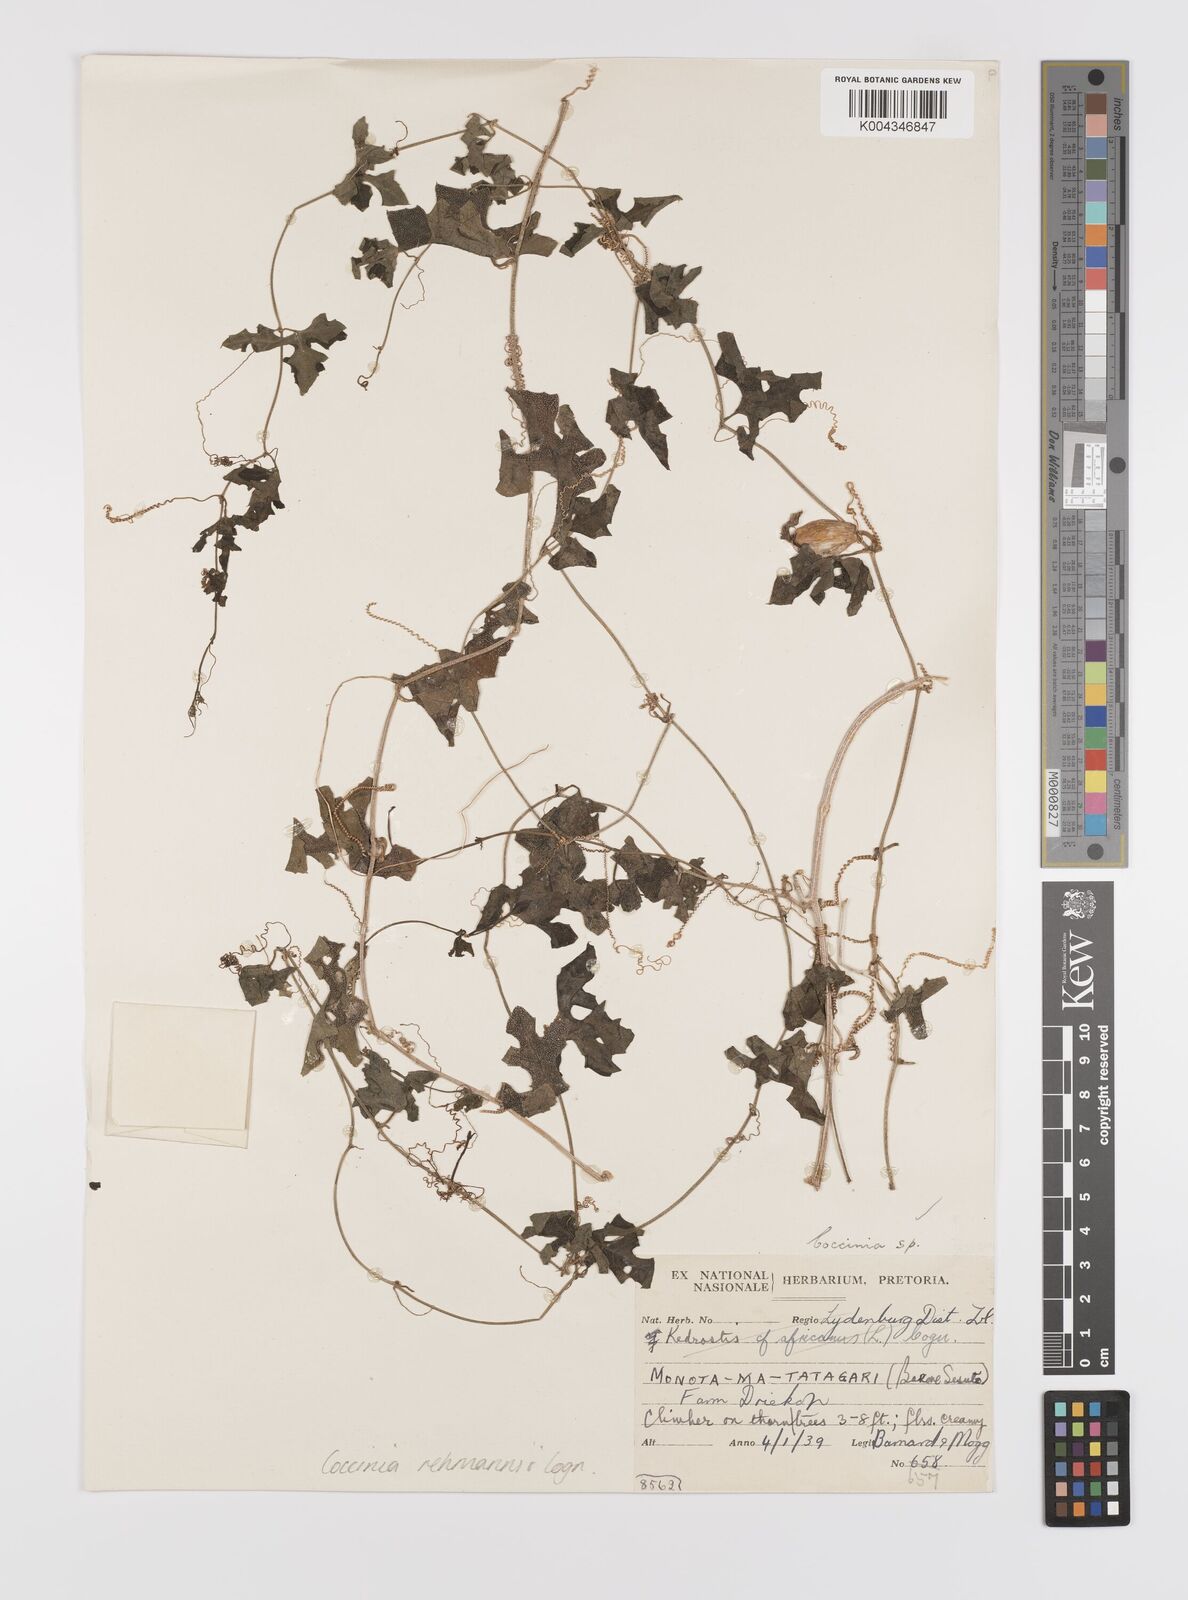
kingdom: Plantae
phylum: Tracheophyta
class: Magnoliopsida
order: Cucurbitales
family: Cucurbitaceae
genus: Coccinia
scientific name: Coccinia rehmannii
